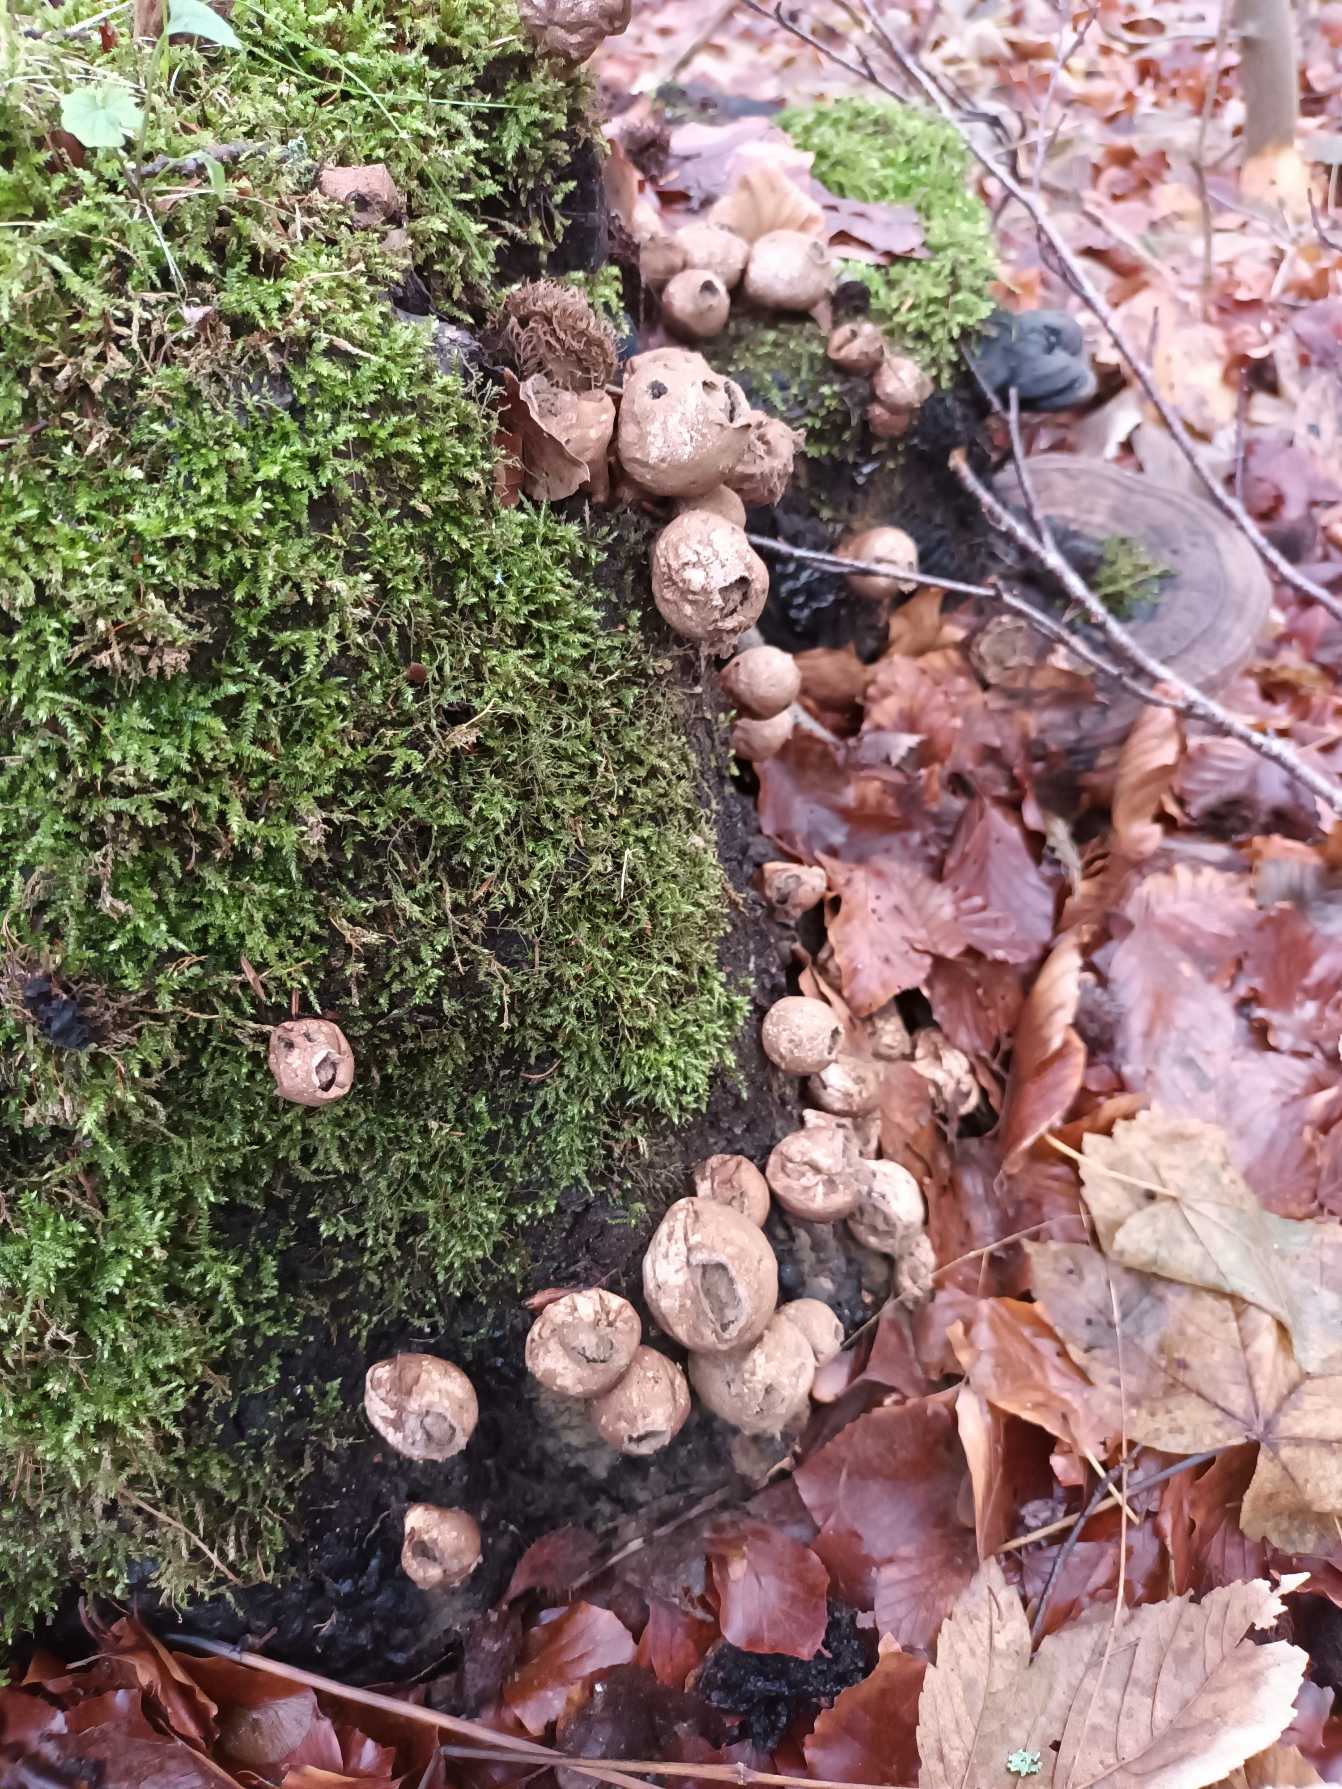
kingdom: Fungi
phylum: Basidiomycota
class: Agaricomycetes
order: Agaricales
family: Lycoperdaceae
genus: Apioperdon
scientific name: Apioperdon pyriforme
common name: Pære-støvbold
